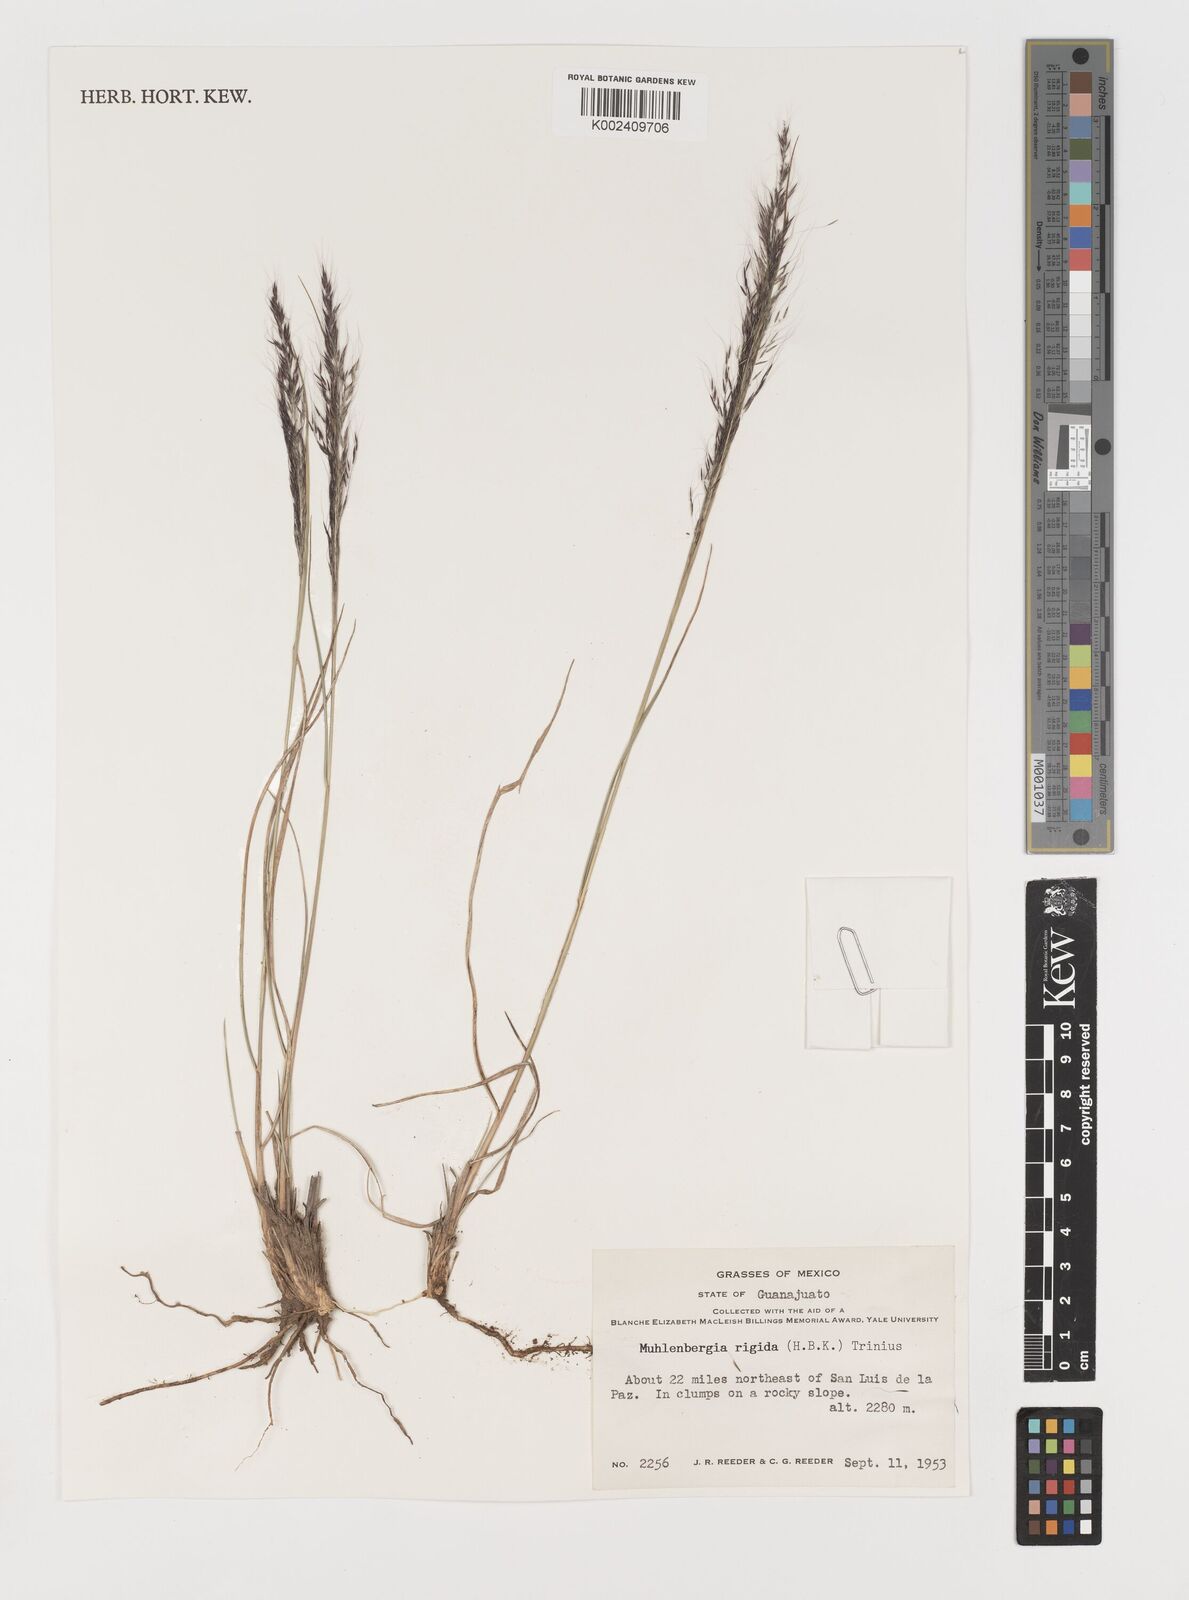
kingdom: Plantae
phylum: Tracheophyta
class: Liliopsida
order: Poales
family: Poaceae
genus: Muhlenbergia
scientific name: Muhlenbergia rigida
